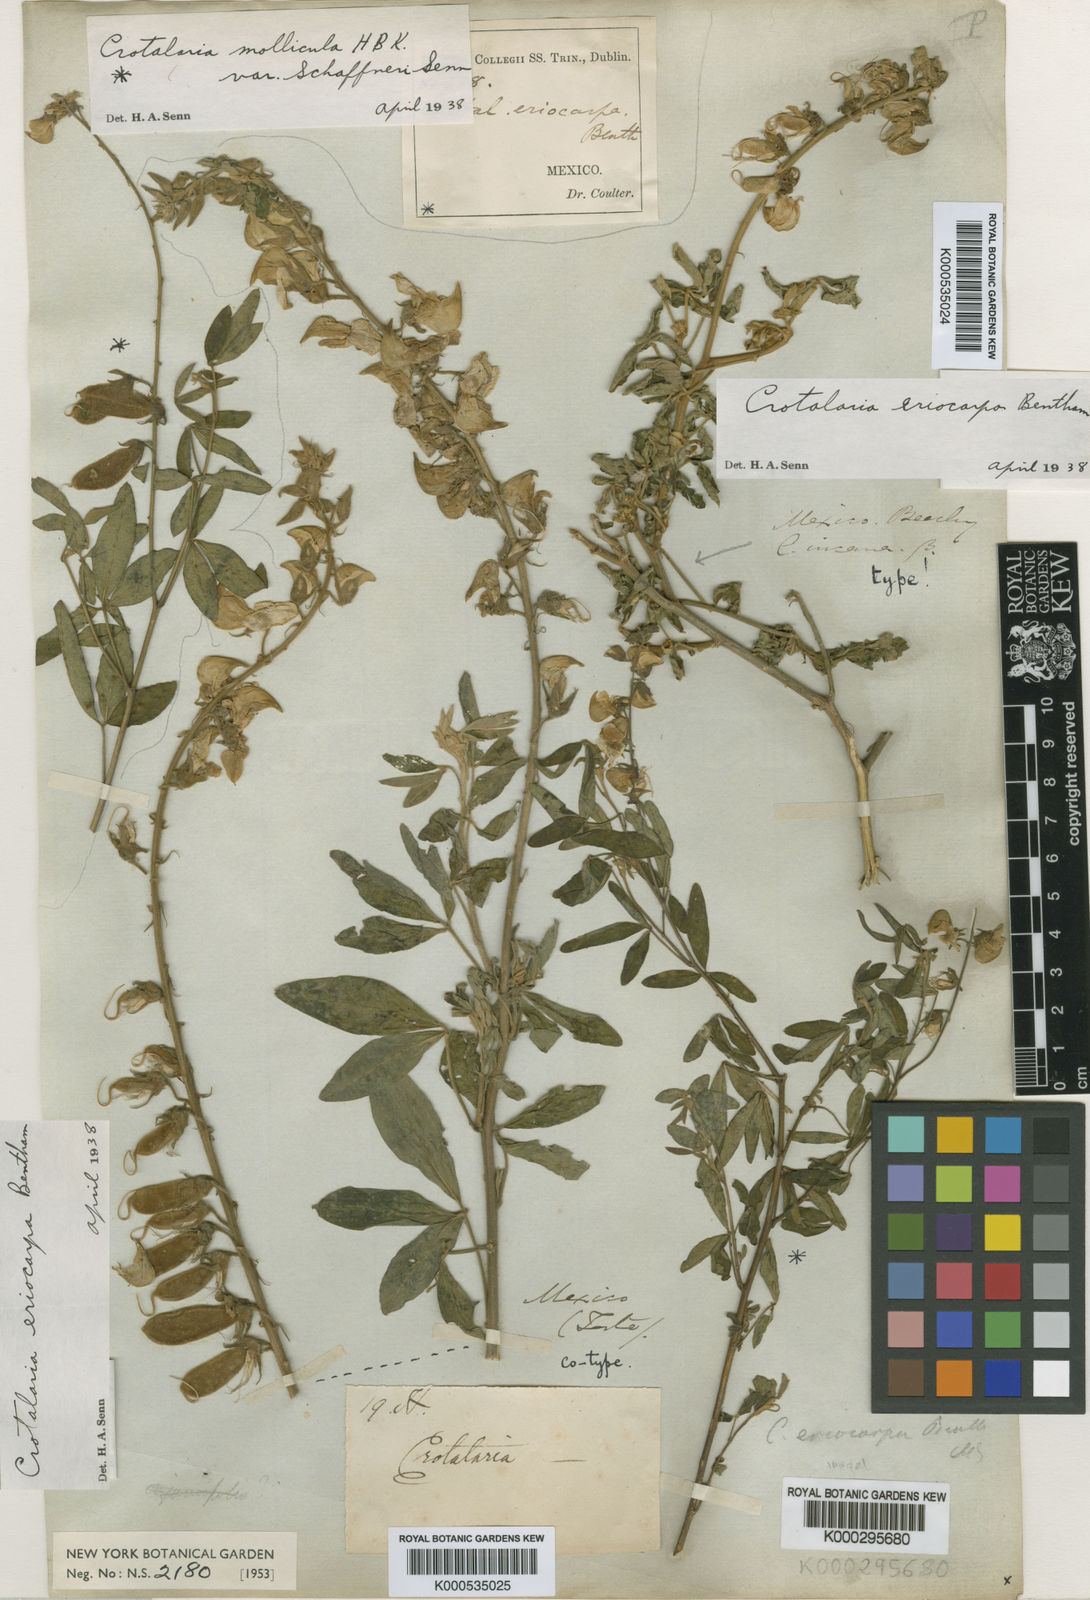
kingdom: Plantae
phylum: Tracheophyta
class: Magnoliopsida
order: Fabales
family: Fabaceae
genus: Crotalaria
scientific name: Crotalaria eriocarpa
